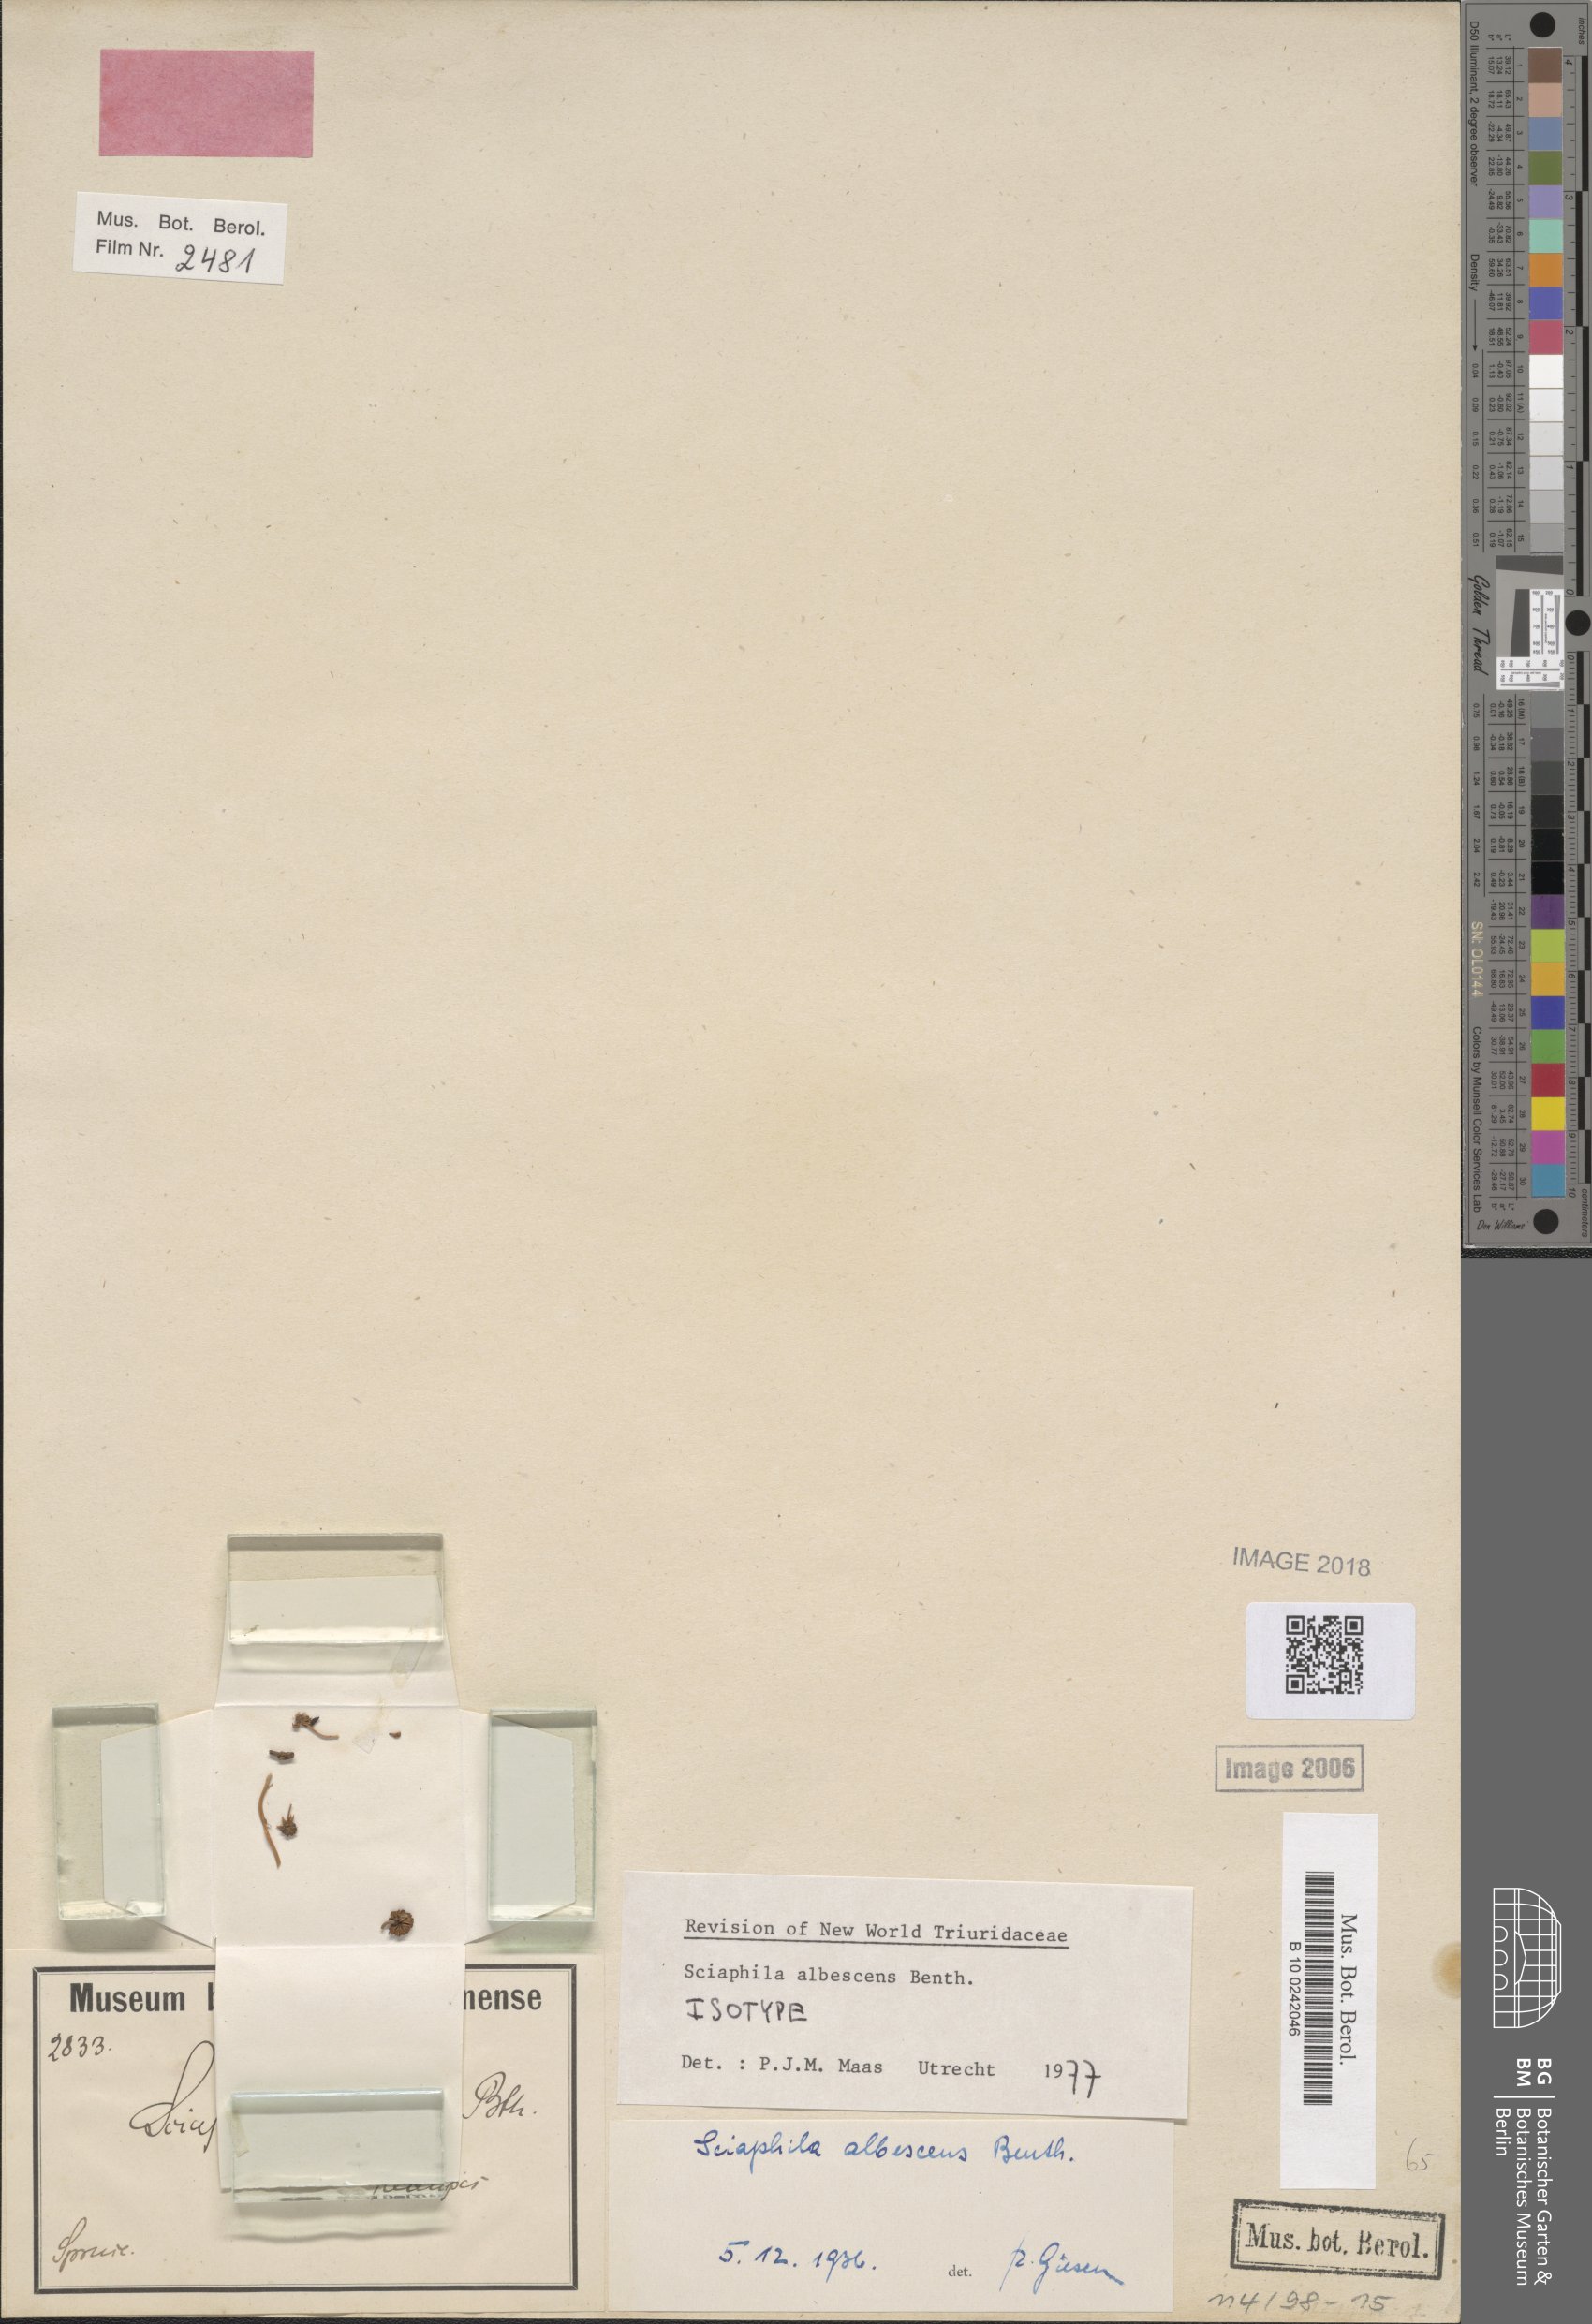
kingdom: Plantae
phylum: Tracheophyta
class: Liliopsida
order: Pandanales
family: Triuridaceae
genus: Sciaphila
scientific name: Sciaphila albescens
